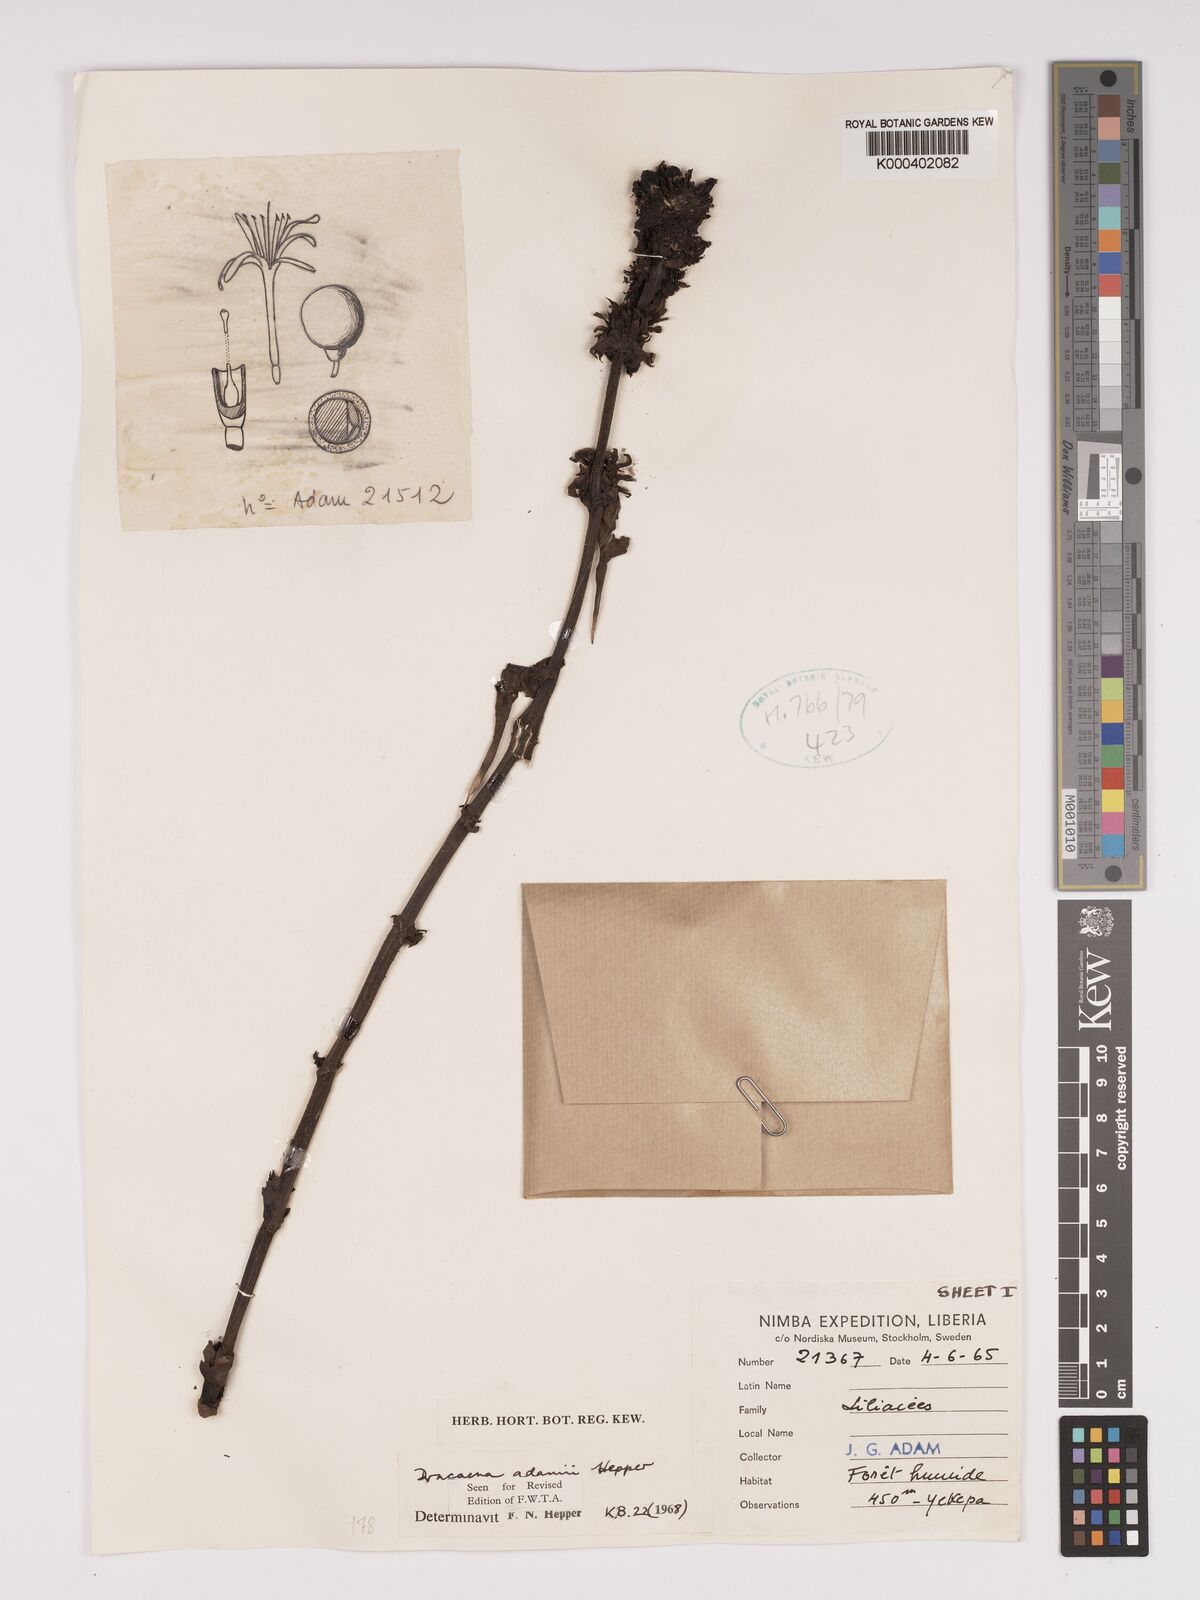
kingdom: Plantae
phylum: Tracheophyta
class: Liliopsida
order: Asparagales
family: Asparagaceae
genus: Dracaena
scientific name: Dracaena adamii
